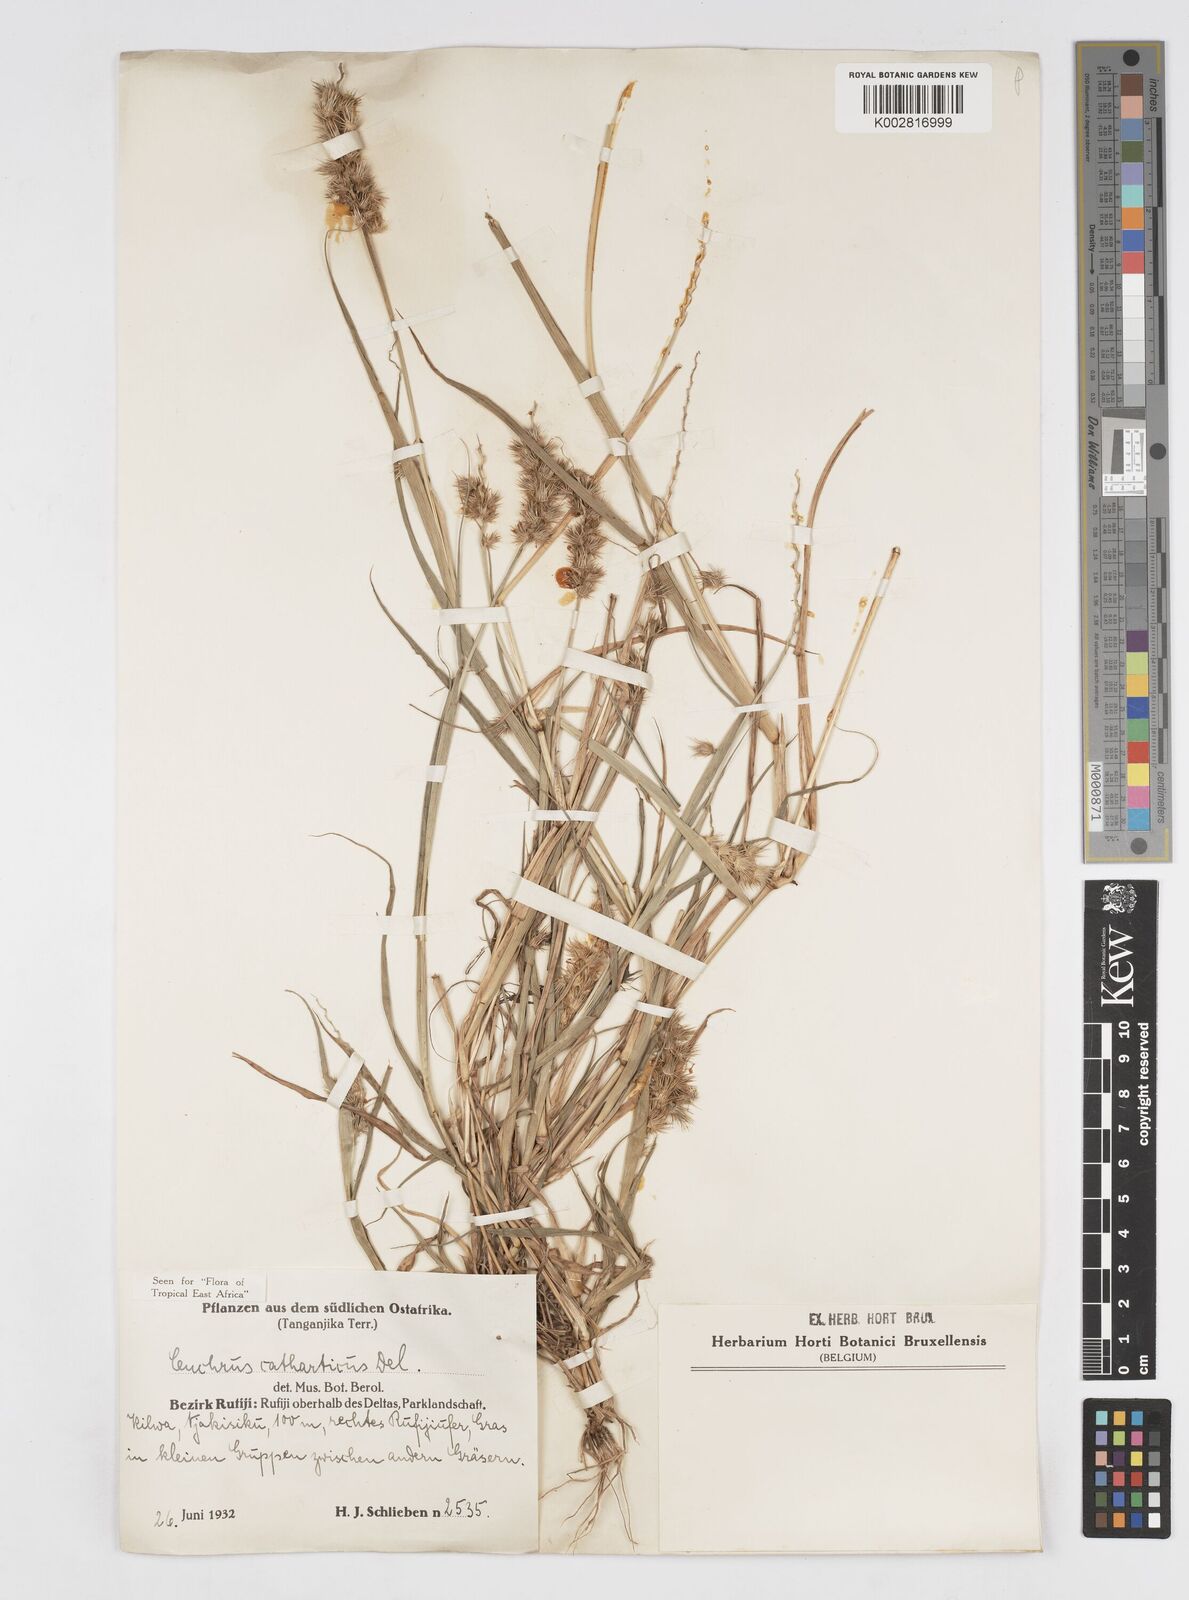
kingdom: Plantae
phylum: Tracheophyta
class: Liliopsida
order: Poales
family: Poaceae
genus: Cenchrus
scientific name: Cenchrus biflorus
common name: Indian sandbur
